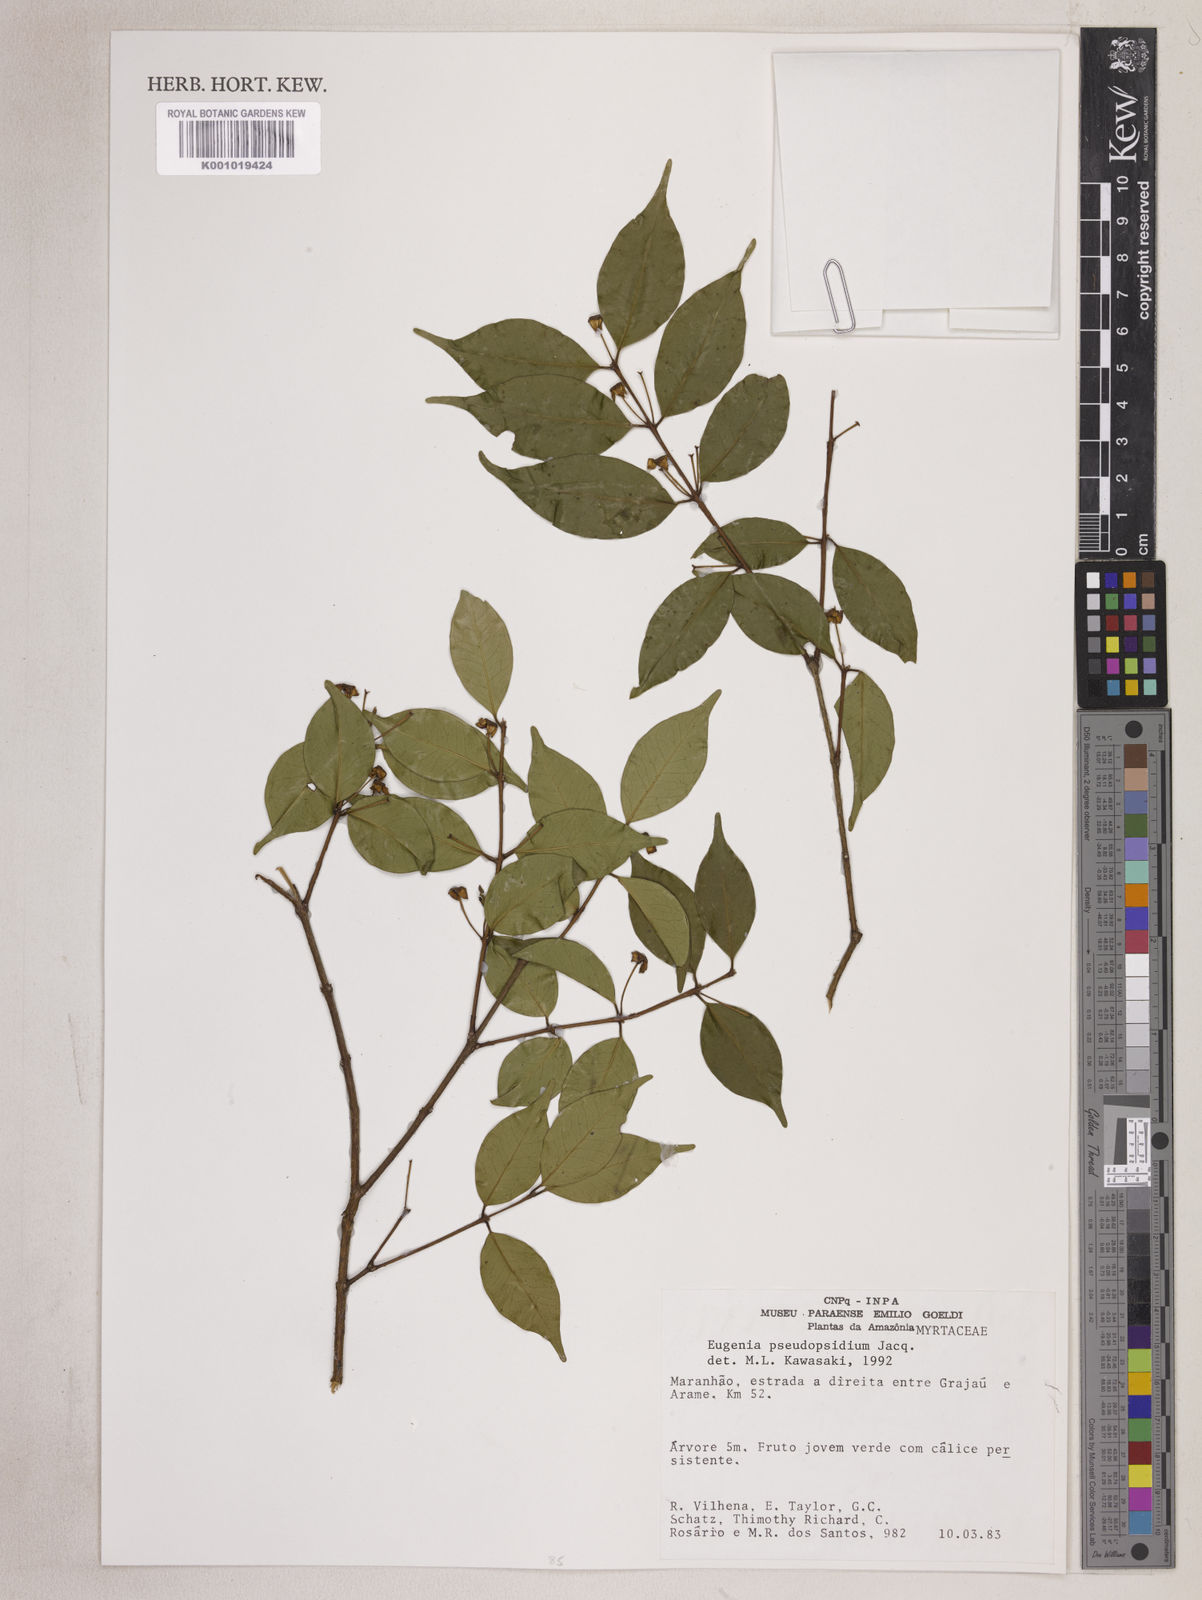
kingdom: Plantae
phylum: Tracheophyta
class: Magnoliopsida
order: Myrtales
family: Myrtaceae
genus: Eugenia
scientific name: Eugenia pseudopsidium
